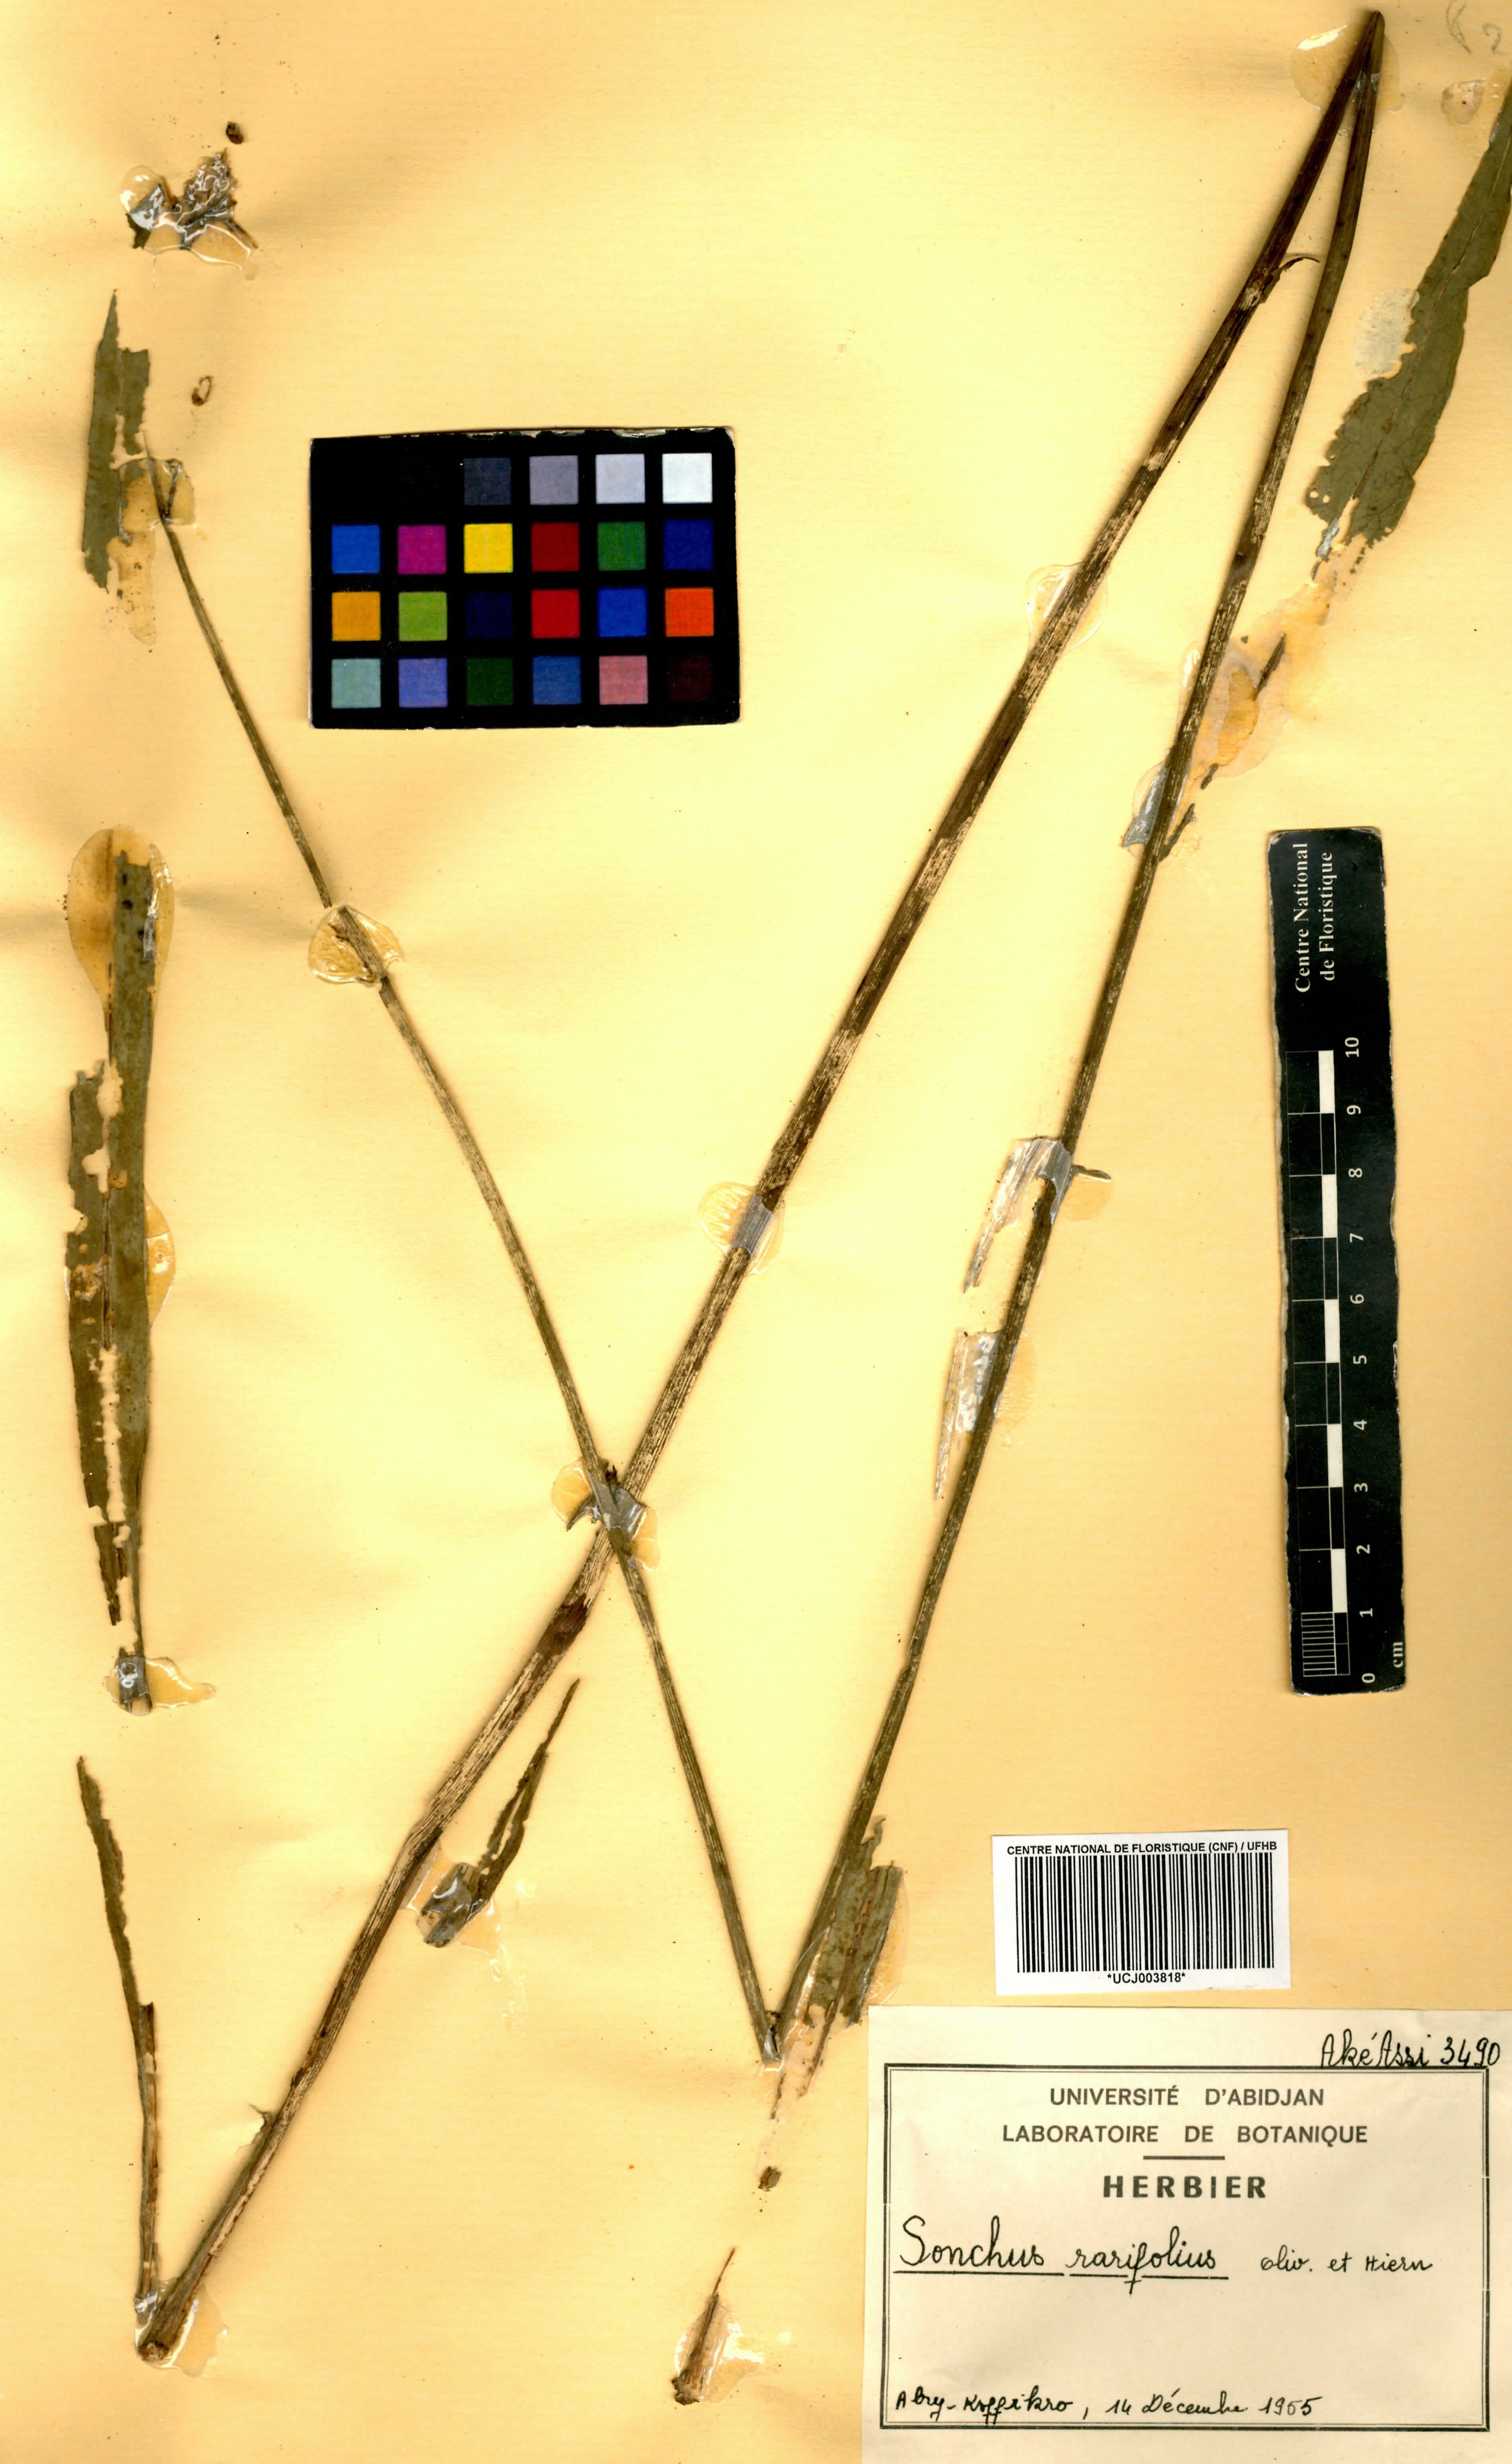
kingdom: Plantae
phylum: Tracheophyta
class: Magnoliopsida
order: Asterales
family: Asteraceae
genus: Launaea
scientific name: Launaea rarifolia
